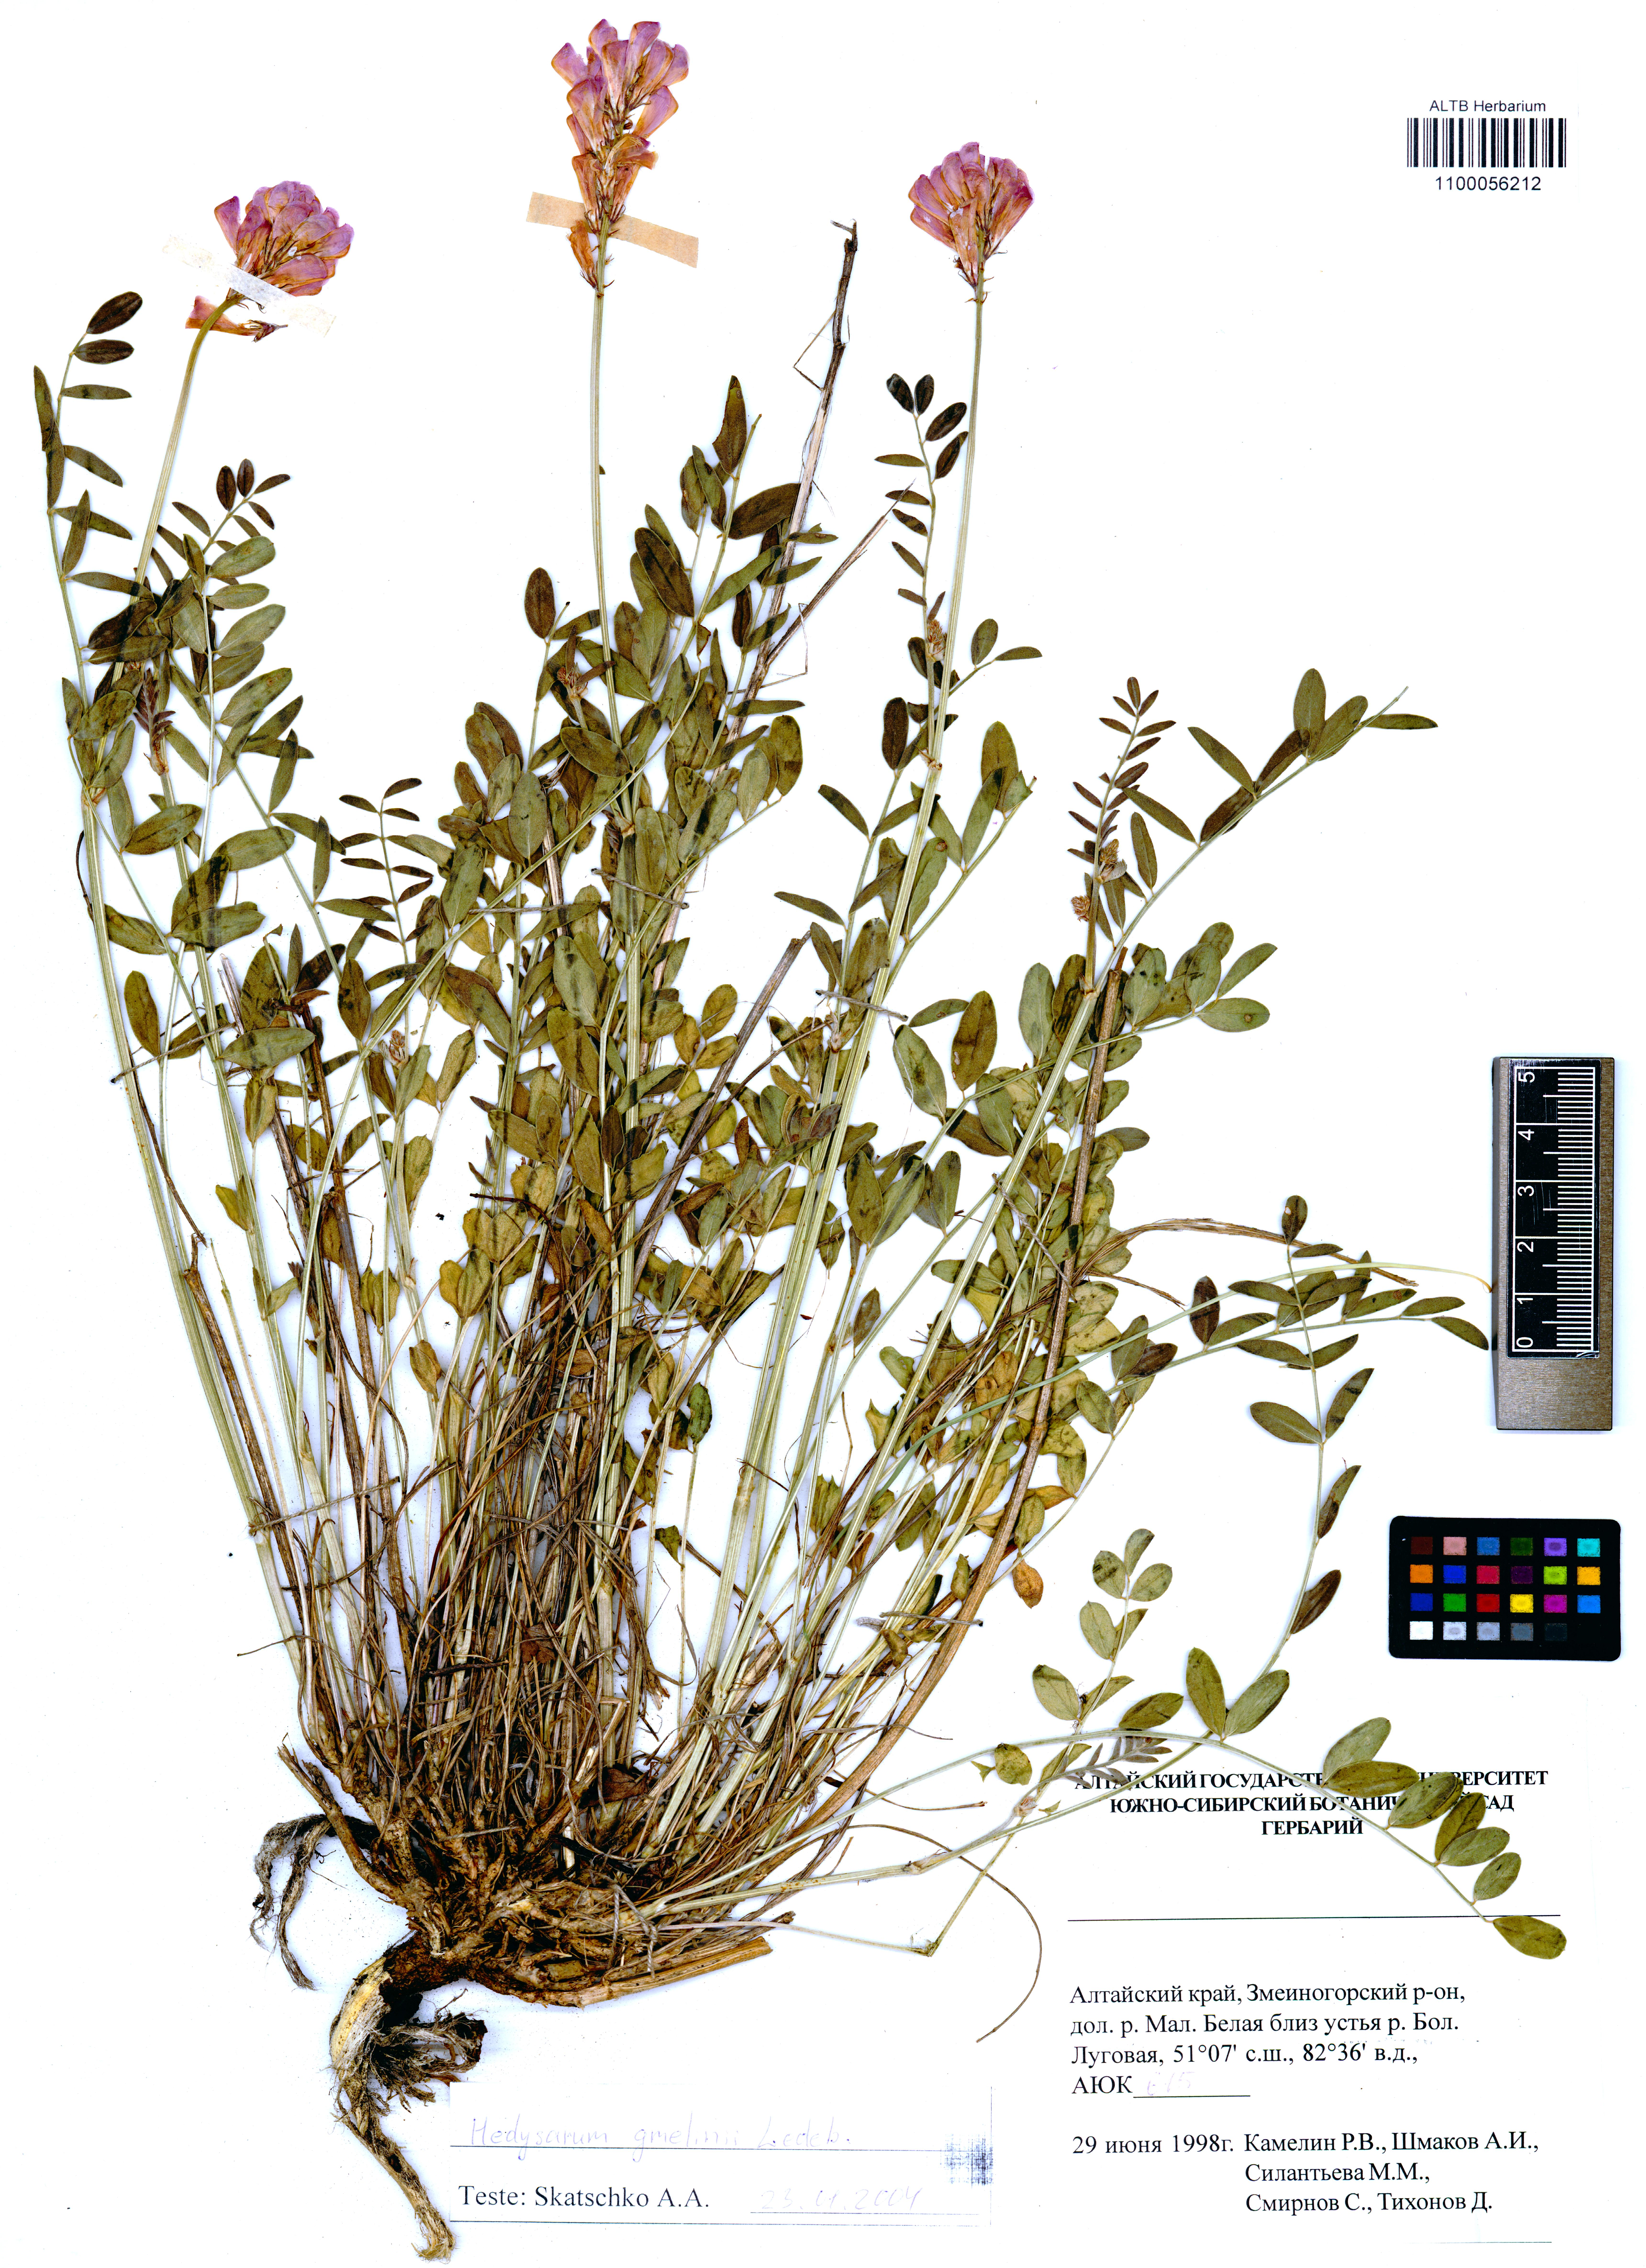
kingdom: Plantae
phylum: Tracheophyta
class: Magnoliopsida
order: Fabales
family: Fabaceae
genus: Hedysarum
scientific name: Hedysarum gmelinii
